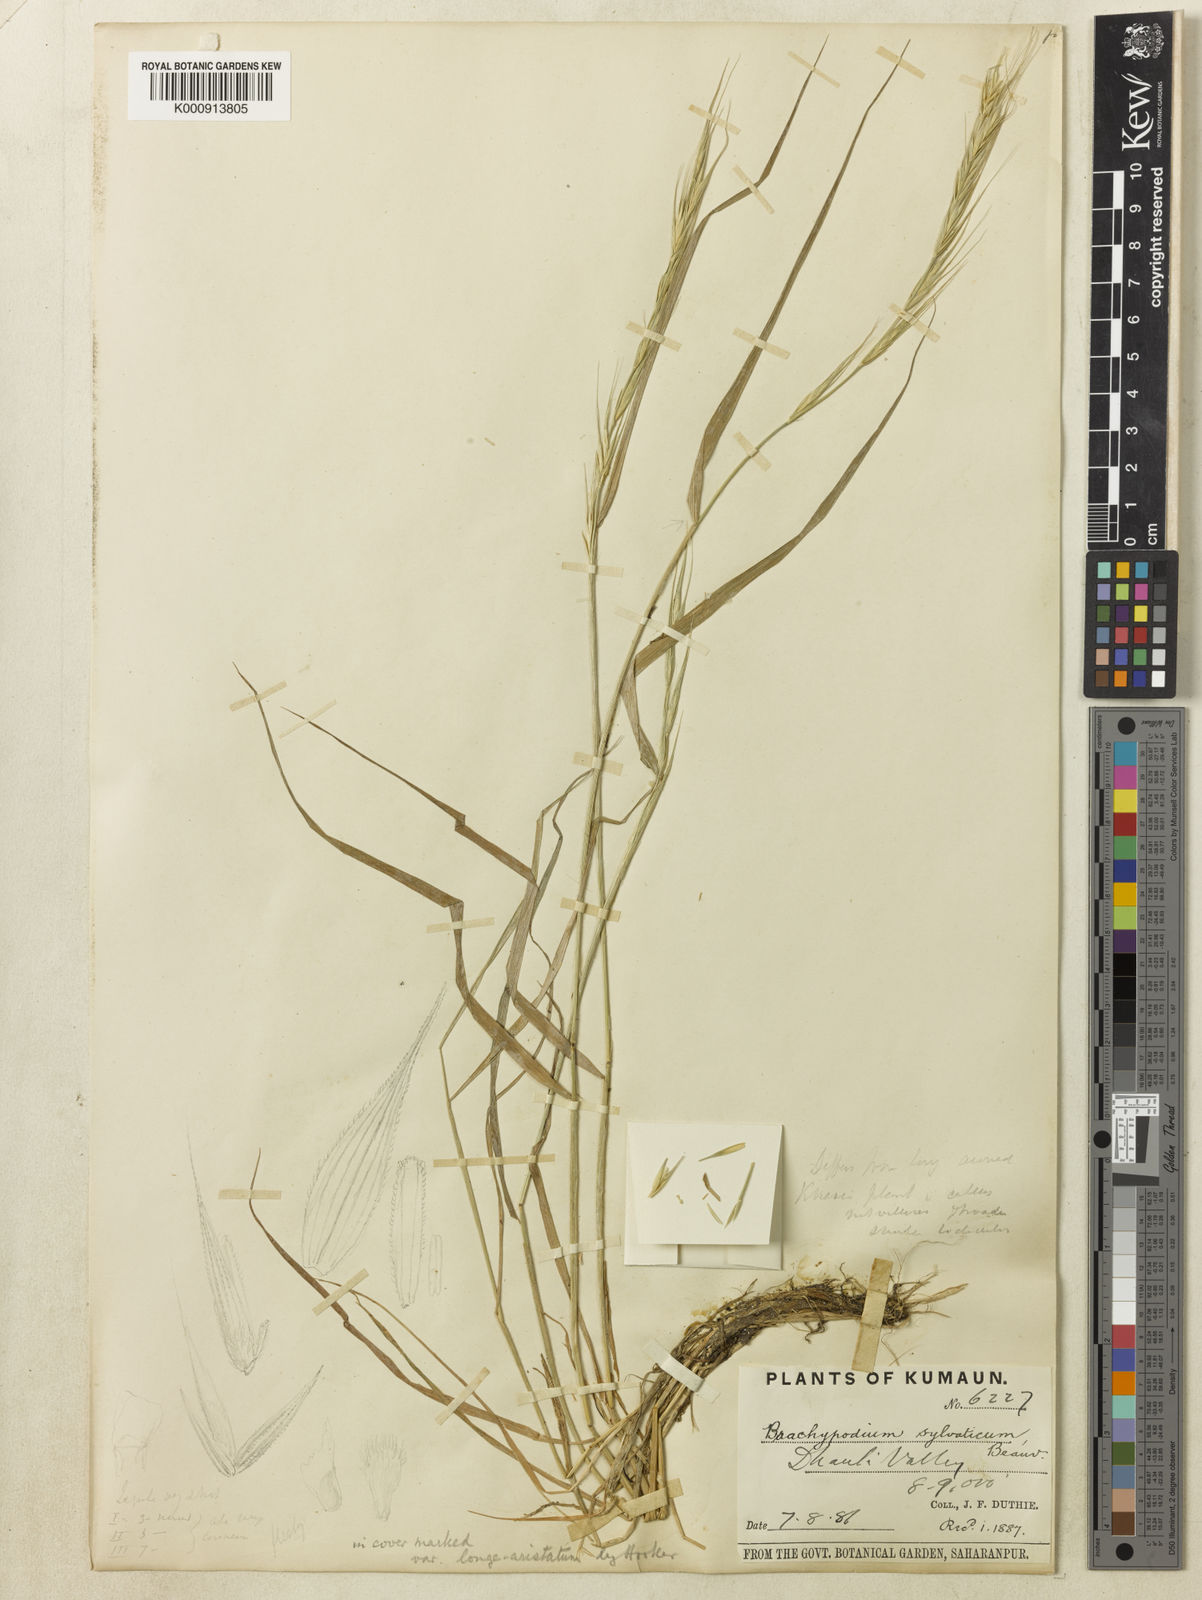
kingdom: Plantae
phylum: Tracheophyta
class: Liliopsida
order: Poales
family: Poaceae
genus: Brachypodium
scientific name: Brachypodium sylvaticum
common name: False-brome
